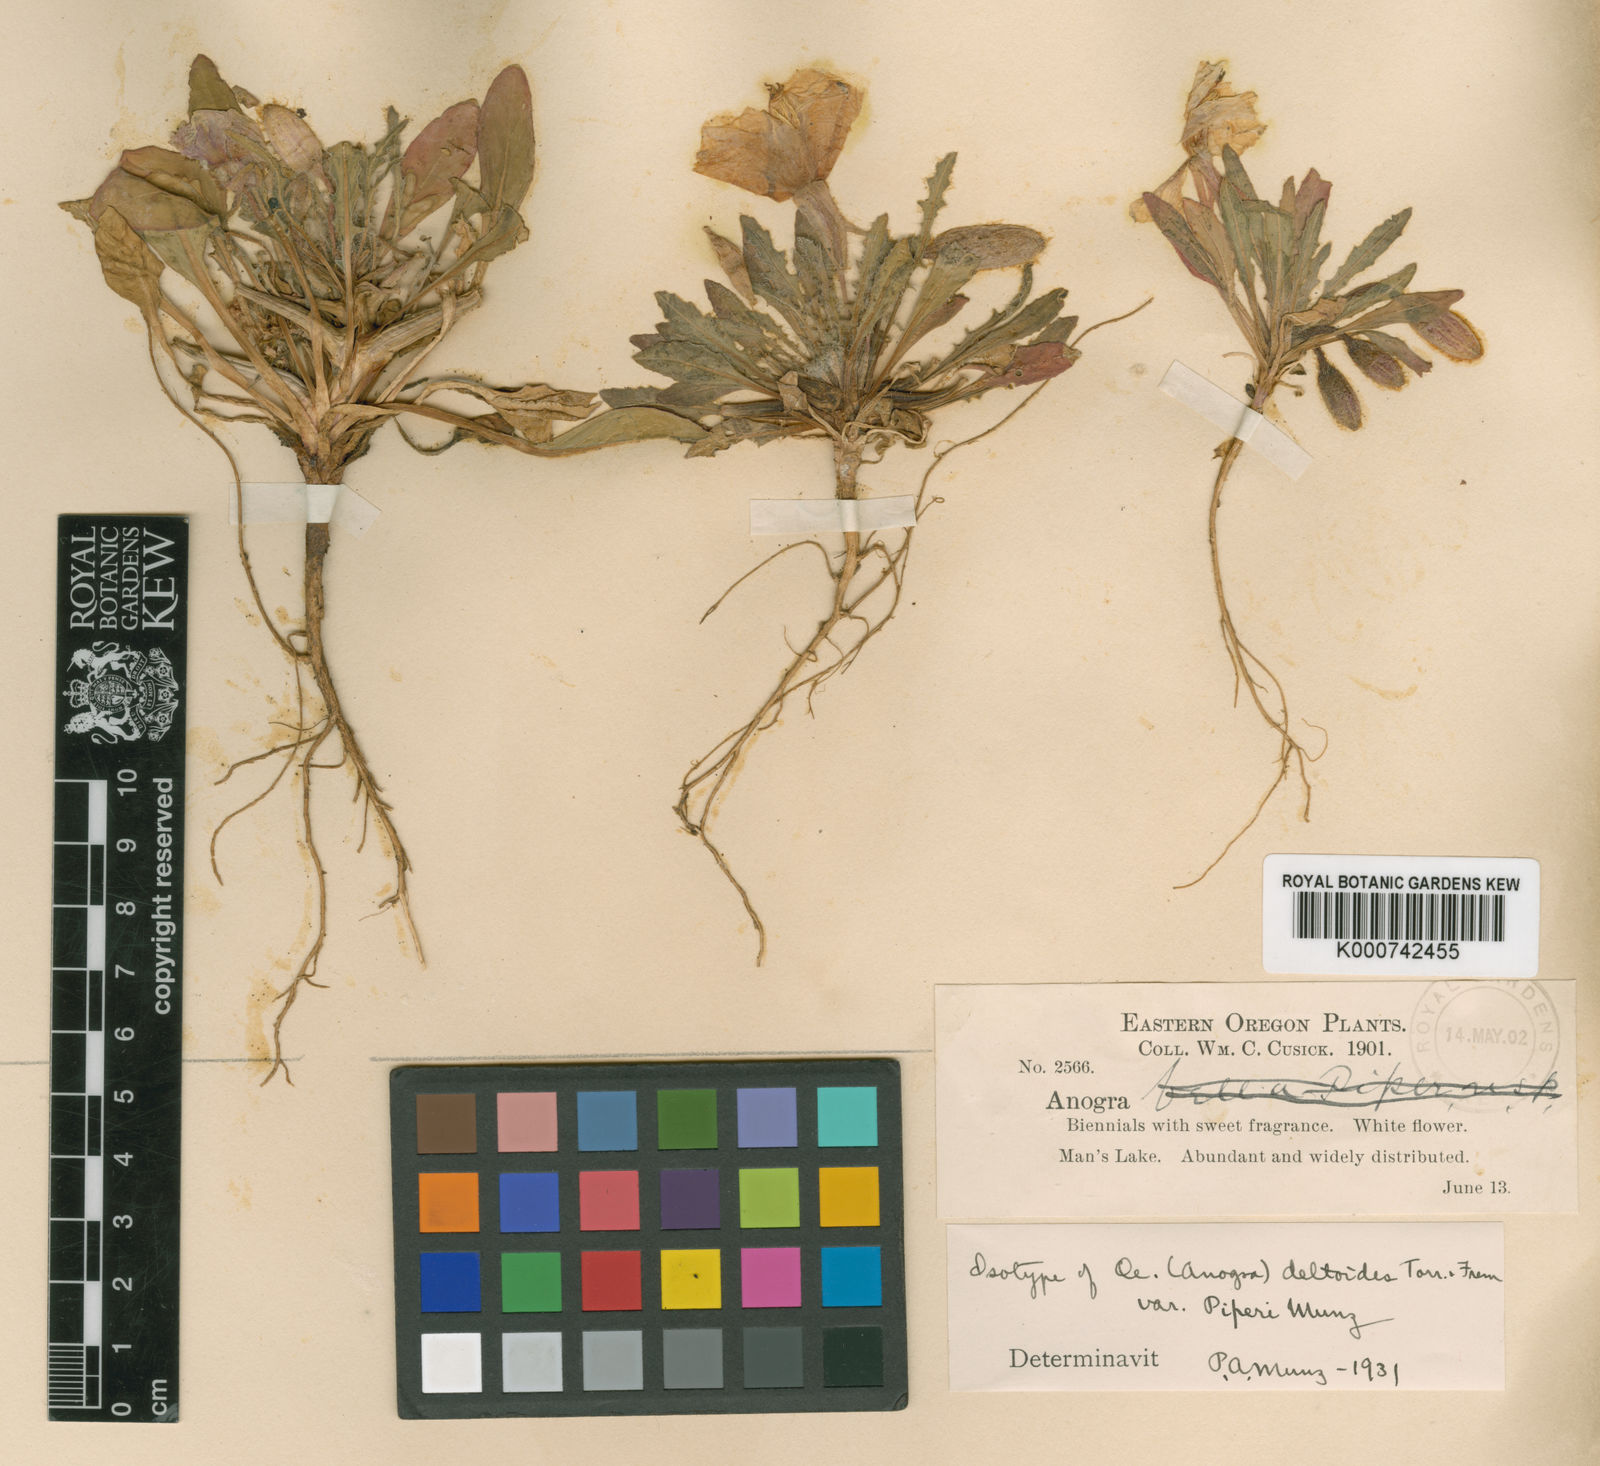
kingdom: Plantae
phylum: Tracheophyta
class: Magnoliopsida
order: Myrtales
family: Onagraceae
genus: Oenothera
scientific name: Oenothera
